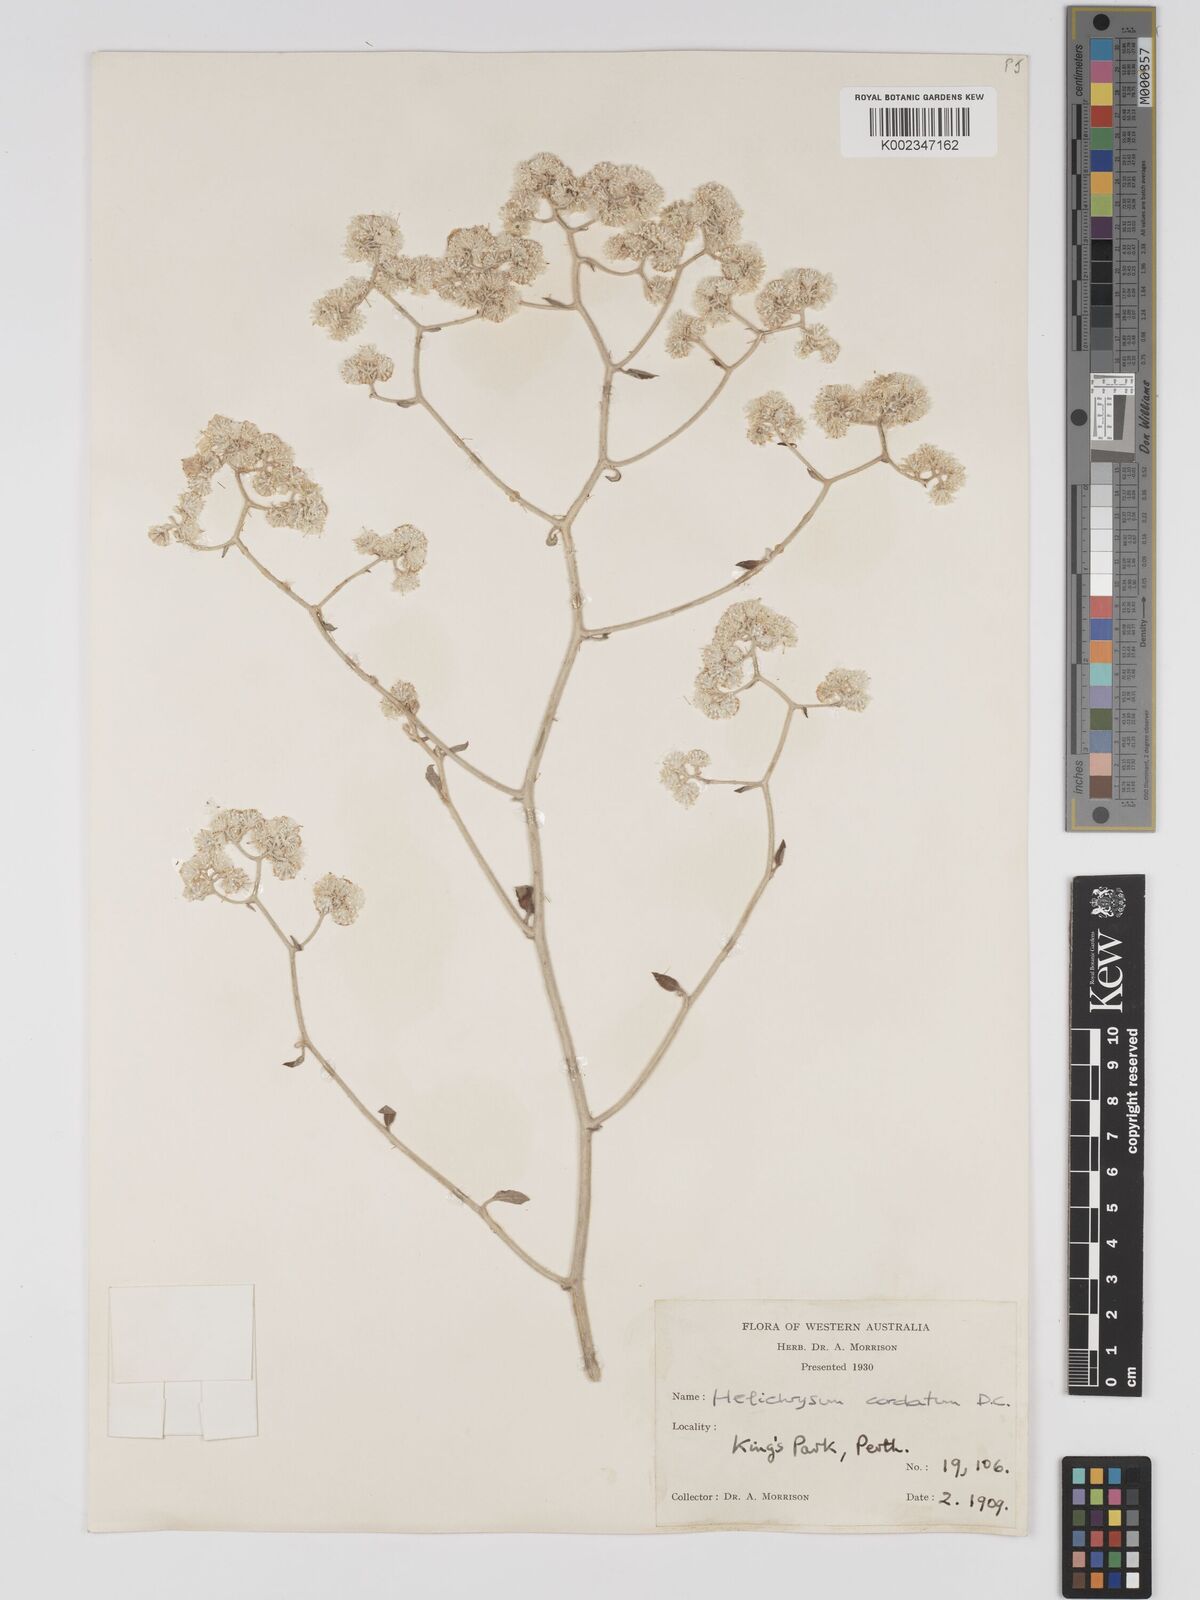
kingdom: Plantae
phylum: Tracheophyta
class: Magnoliopsida
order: Asterales
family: Asteraceae
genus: Ozothamnus
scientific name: Ozothamnus
